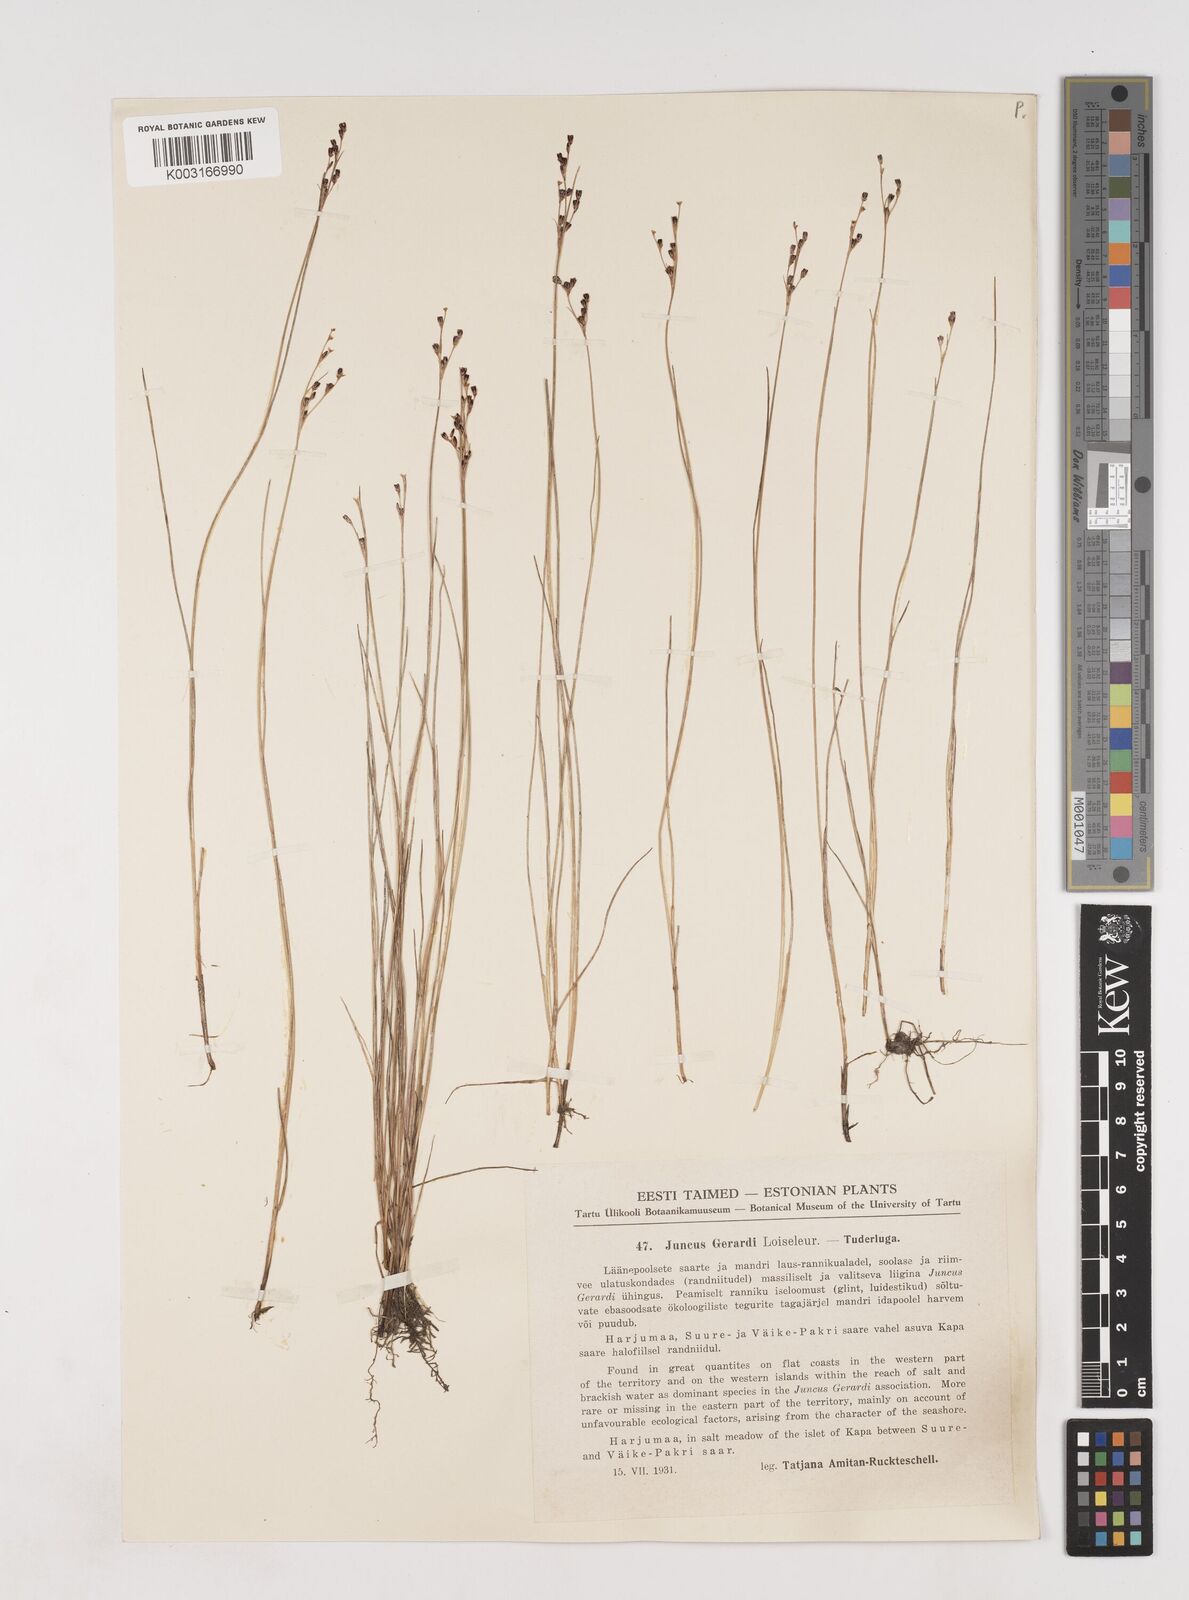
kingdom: Plantae
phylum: Tracheophyta
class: Liliopsida
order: Poales
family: Juncaceae
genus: Juncus
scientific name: Juncus gerardi
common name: Saltmarsh rush
